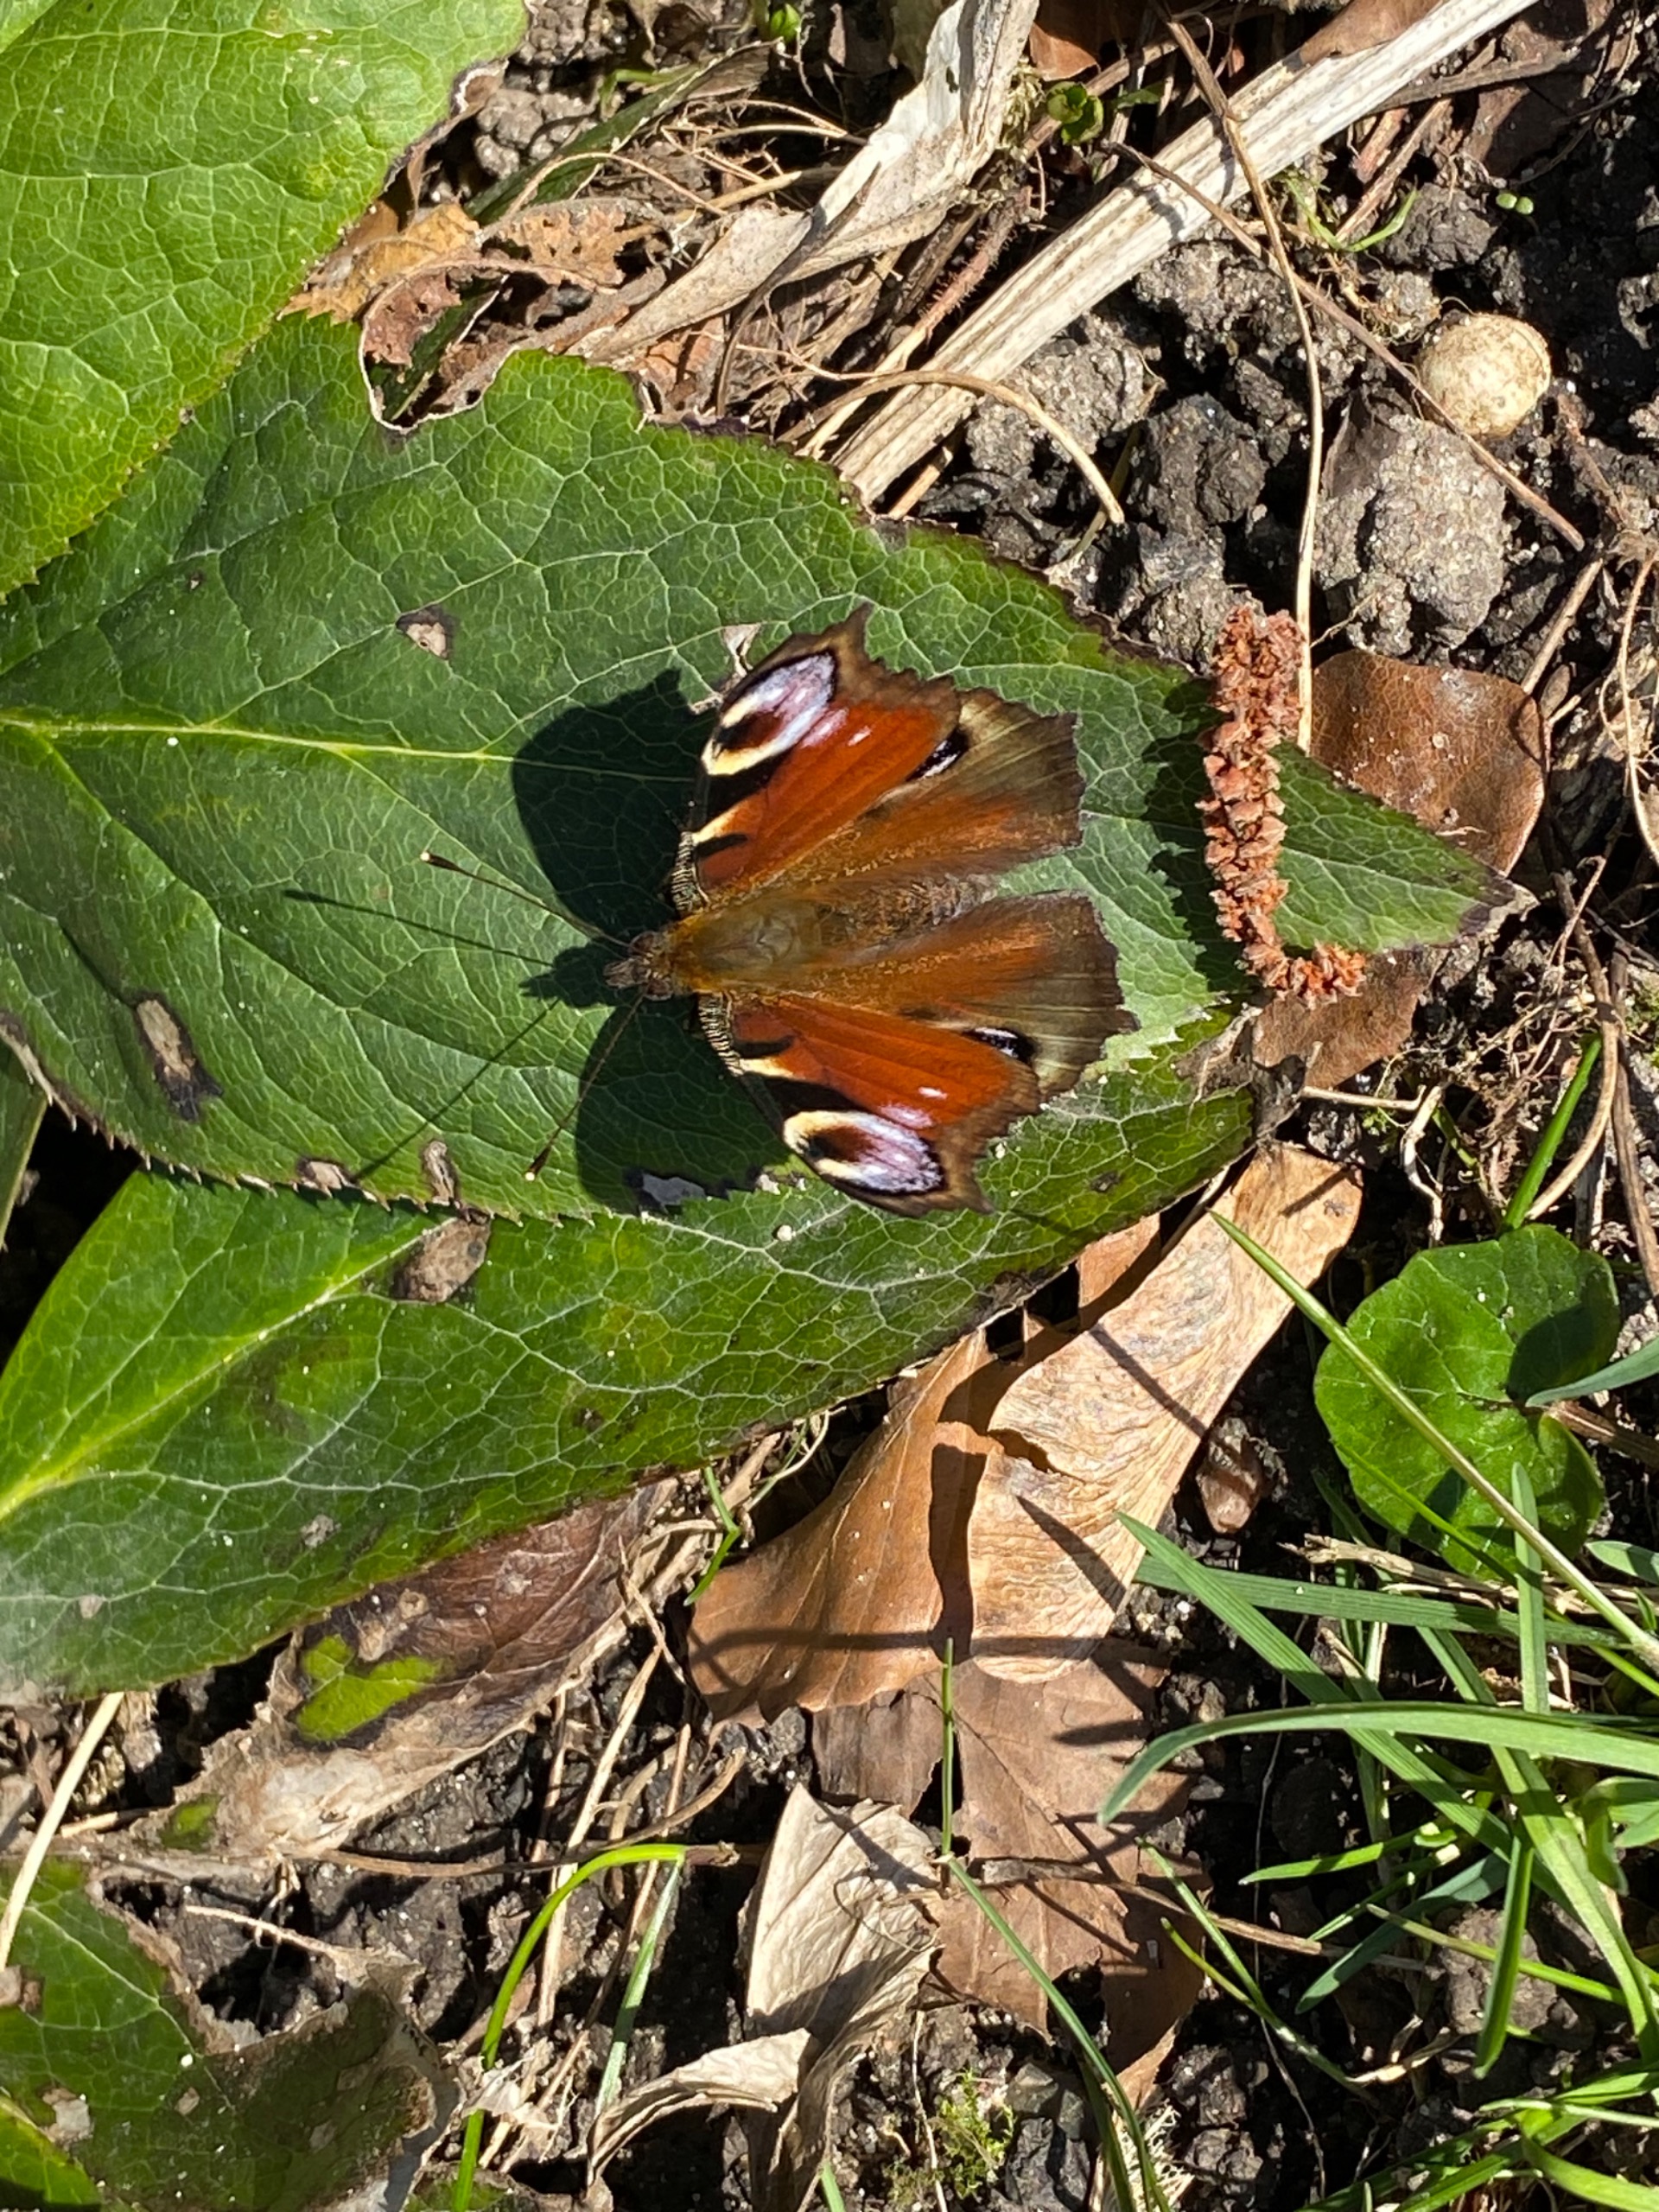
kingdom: Animalia
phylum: Arthropoda
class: Insecta
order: Lepidoptera
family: Nymphalidae
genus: Aglais
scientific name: Aglais io
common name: Dagpåfugleøje
